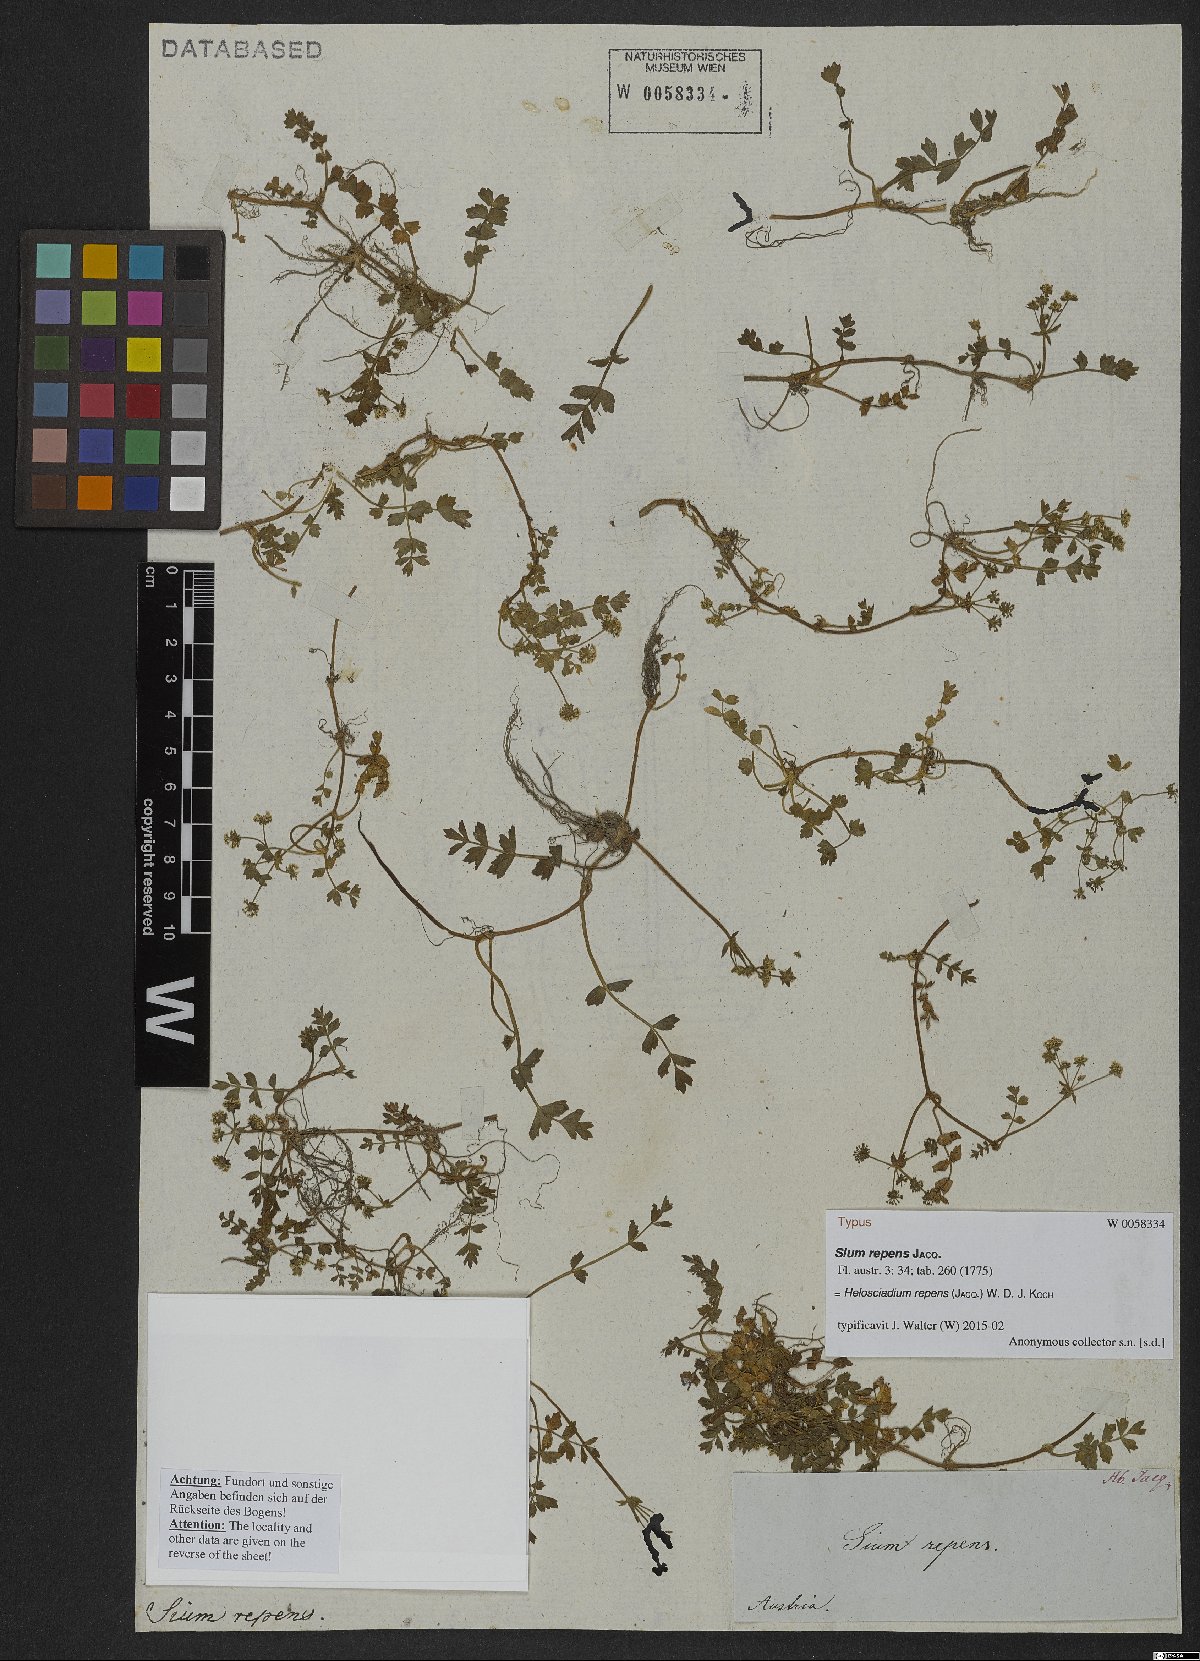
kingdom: Plantae
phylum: Tracheophyta
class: Magnoliopsida
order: Apiales
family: Apiaceae
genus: Helosciadium
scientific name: Helosciadium repens
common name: Creeping marshwort
